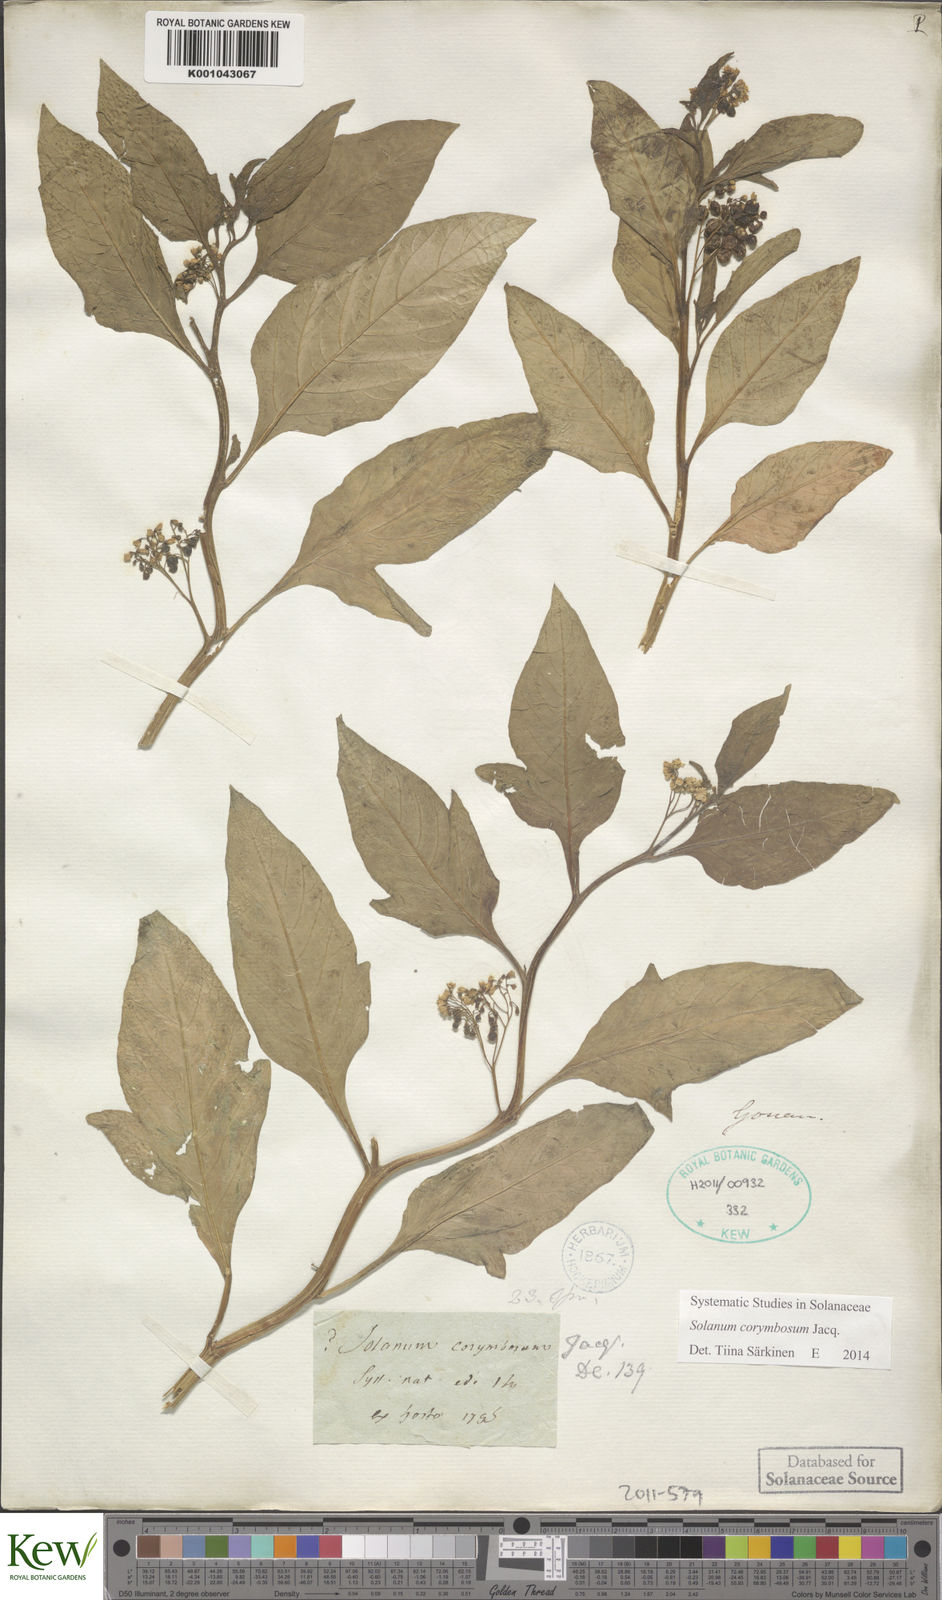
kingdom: Plantae
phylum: Tracheophyta
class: Magnoliopsida
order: Solanales
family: Solanaceae
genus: Solanum
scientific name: Solanum corymbosum
